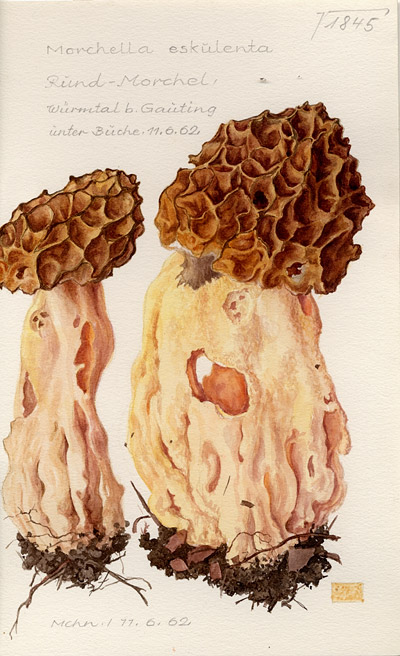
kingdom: Fungi
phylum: Ascomycota
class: Pezizomycetes
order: Pezizales
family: Morchellaceae
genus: Morchella
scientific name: Morchella esculenta
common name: Morel
